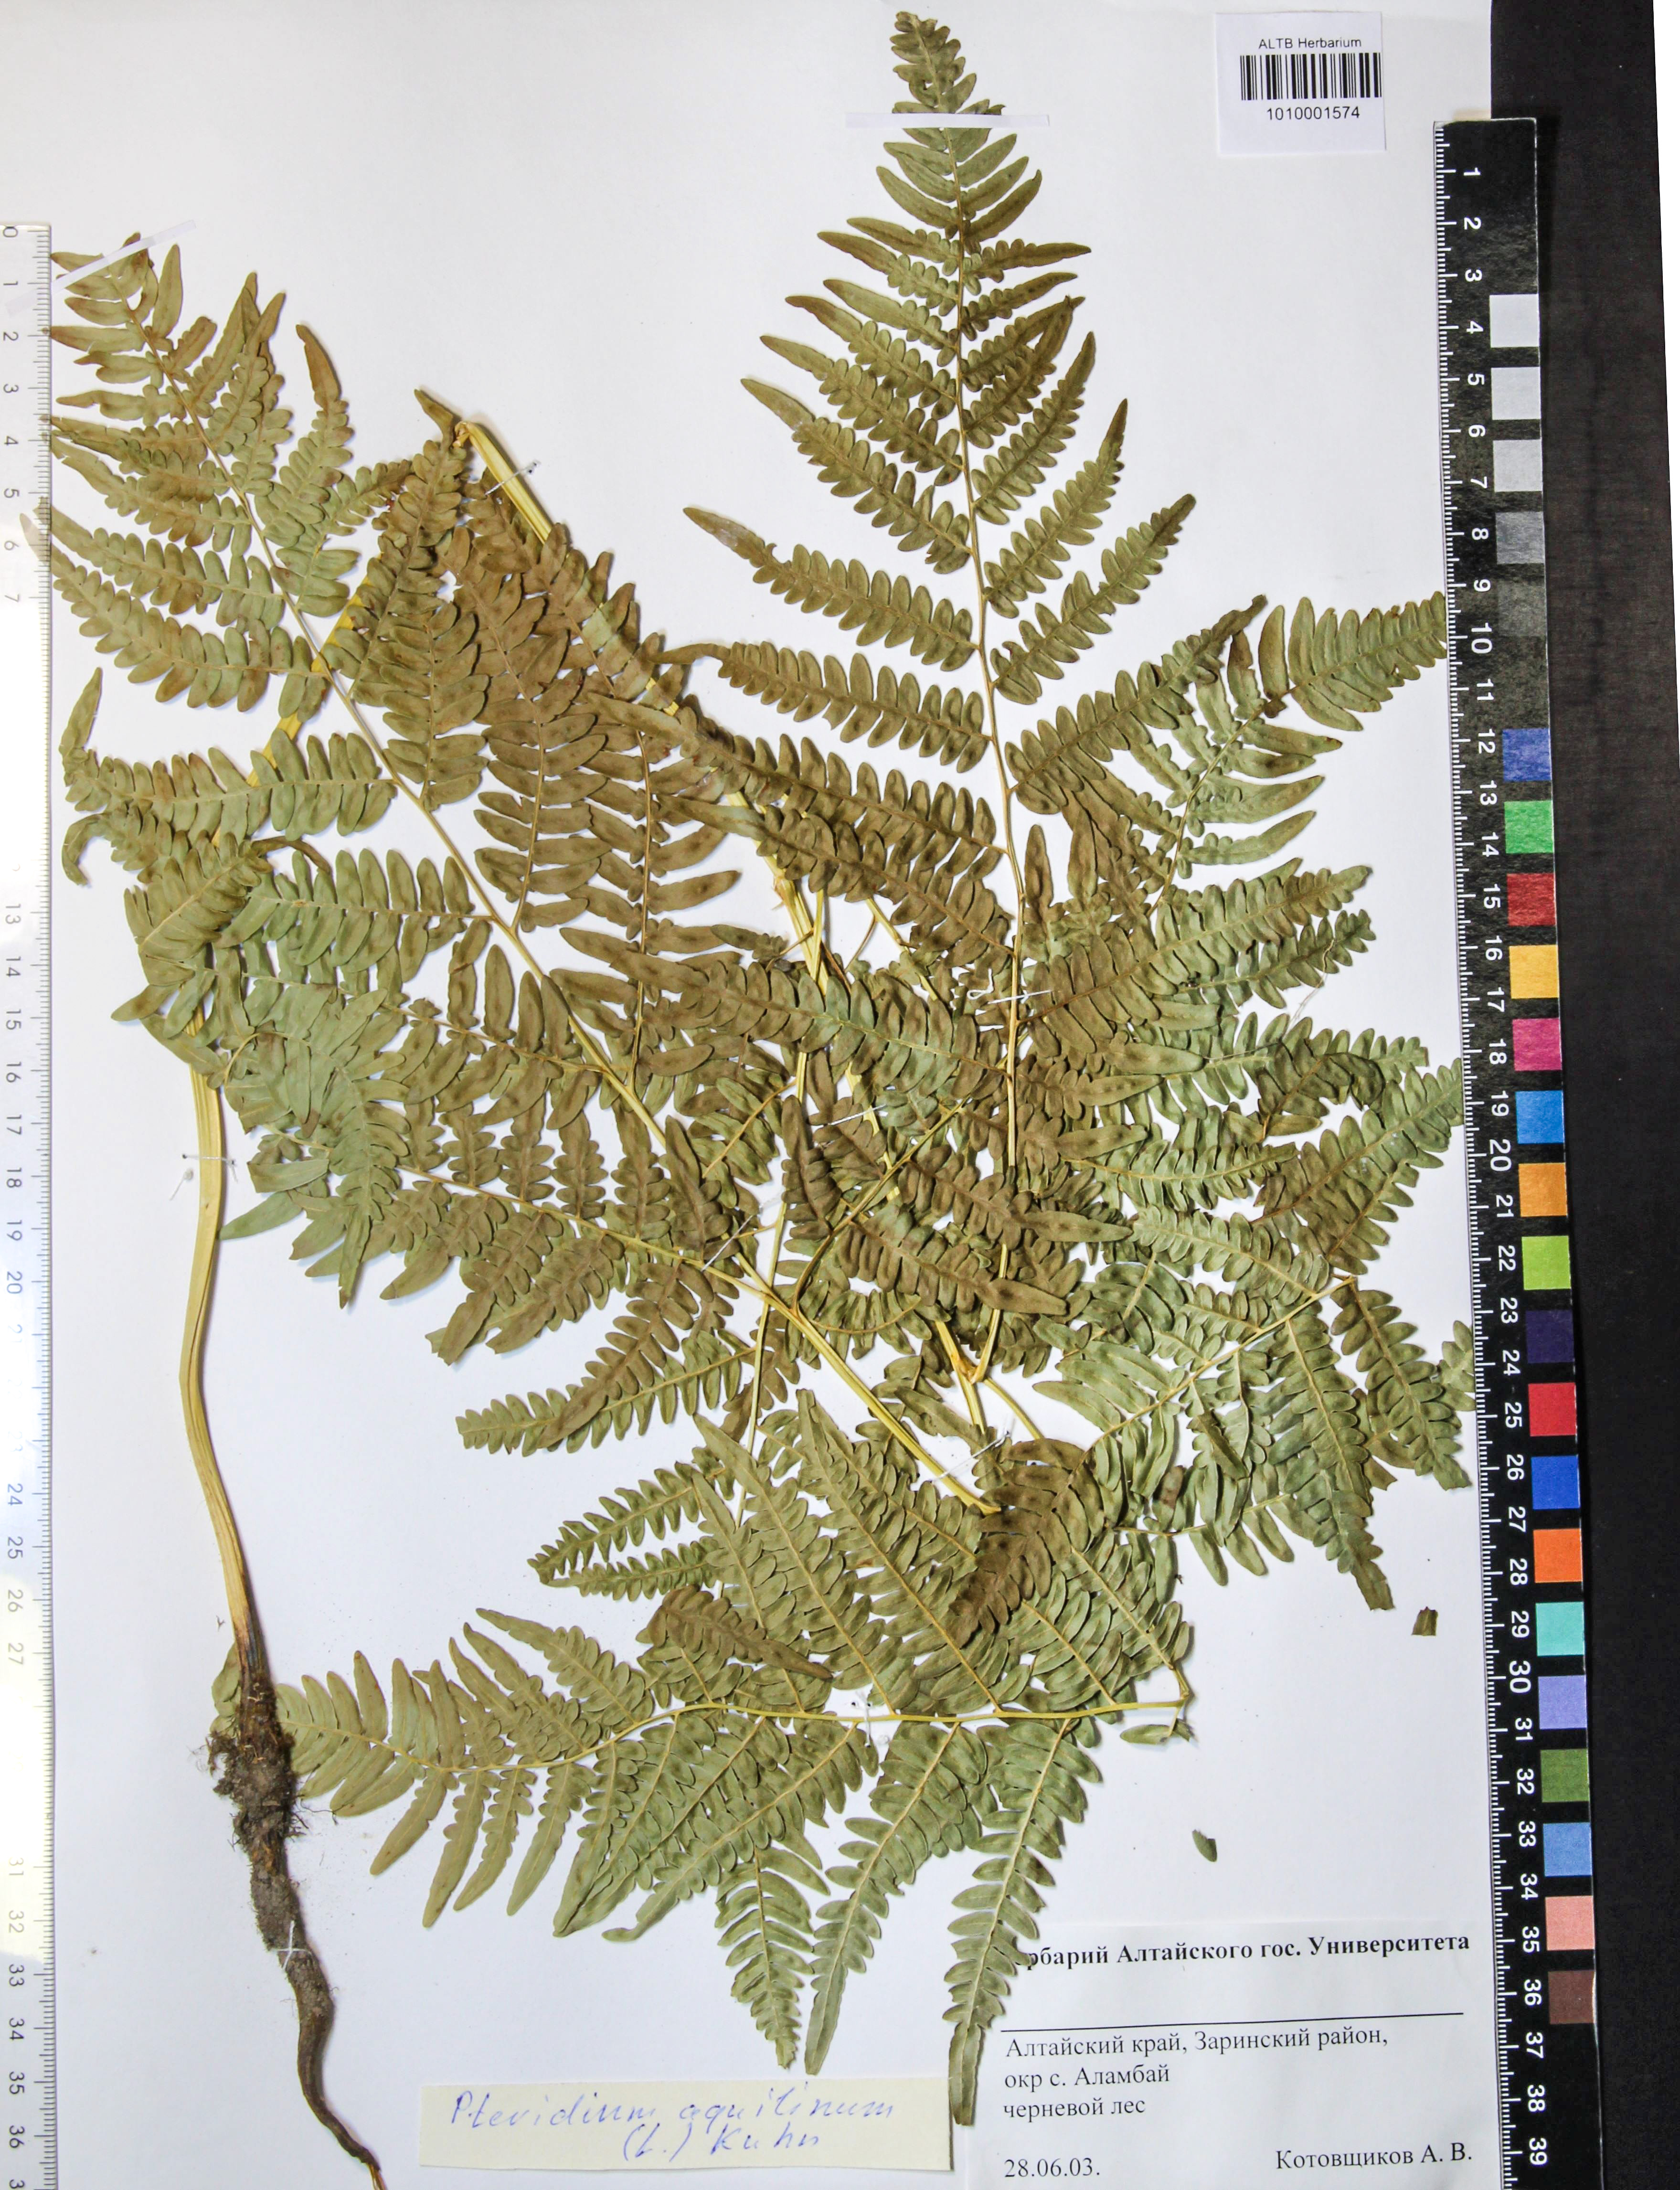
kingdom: Plantae
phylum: Tracheophyta
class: Polypodiopsida
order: Polypodiales
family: Dennstaedtiaceae
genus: Pteridium
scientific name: Pteridium aquilinum
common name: Bracken
